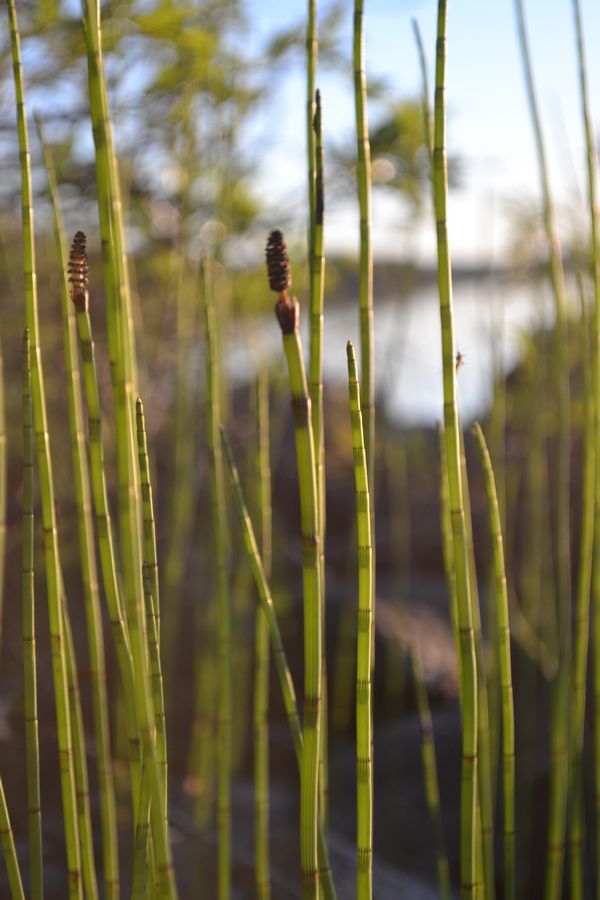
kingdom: Plantae
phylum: Tracheophyta
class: Polypodiopsida
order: Equisetales
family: Equisetaceae
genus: Equisetum
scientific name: Equisetum fluviatile
